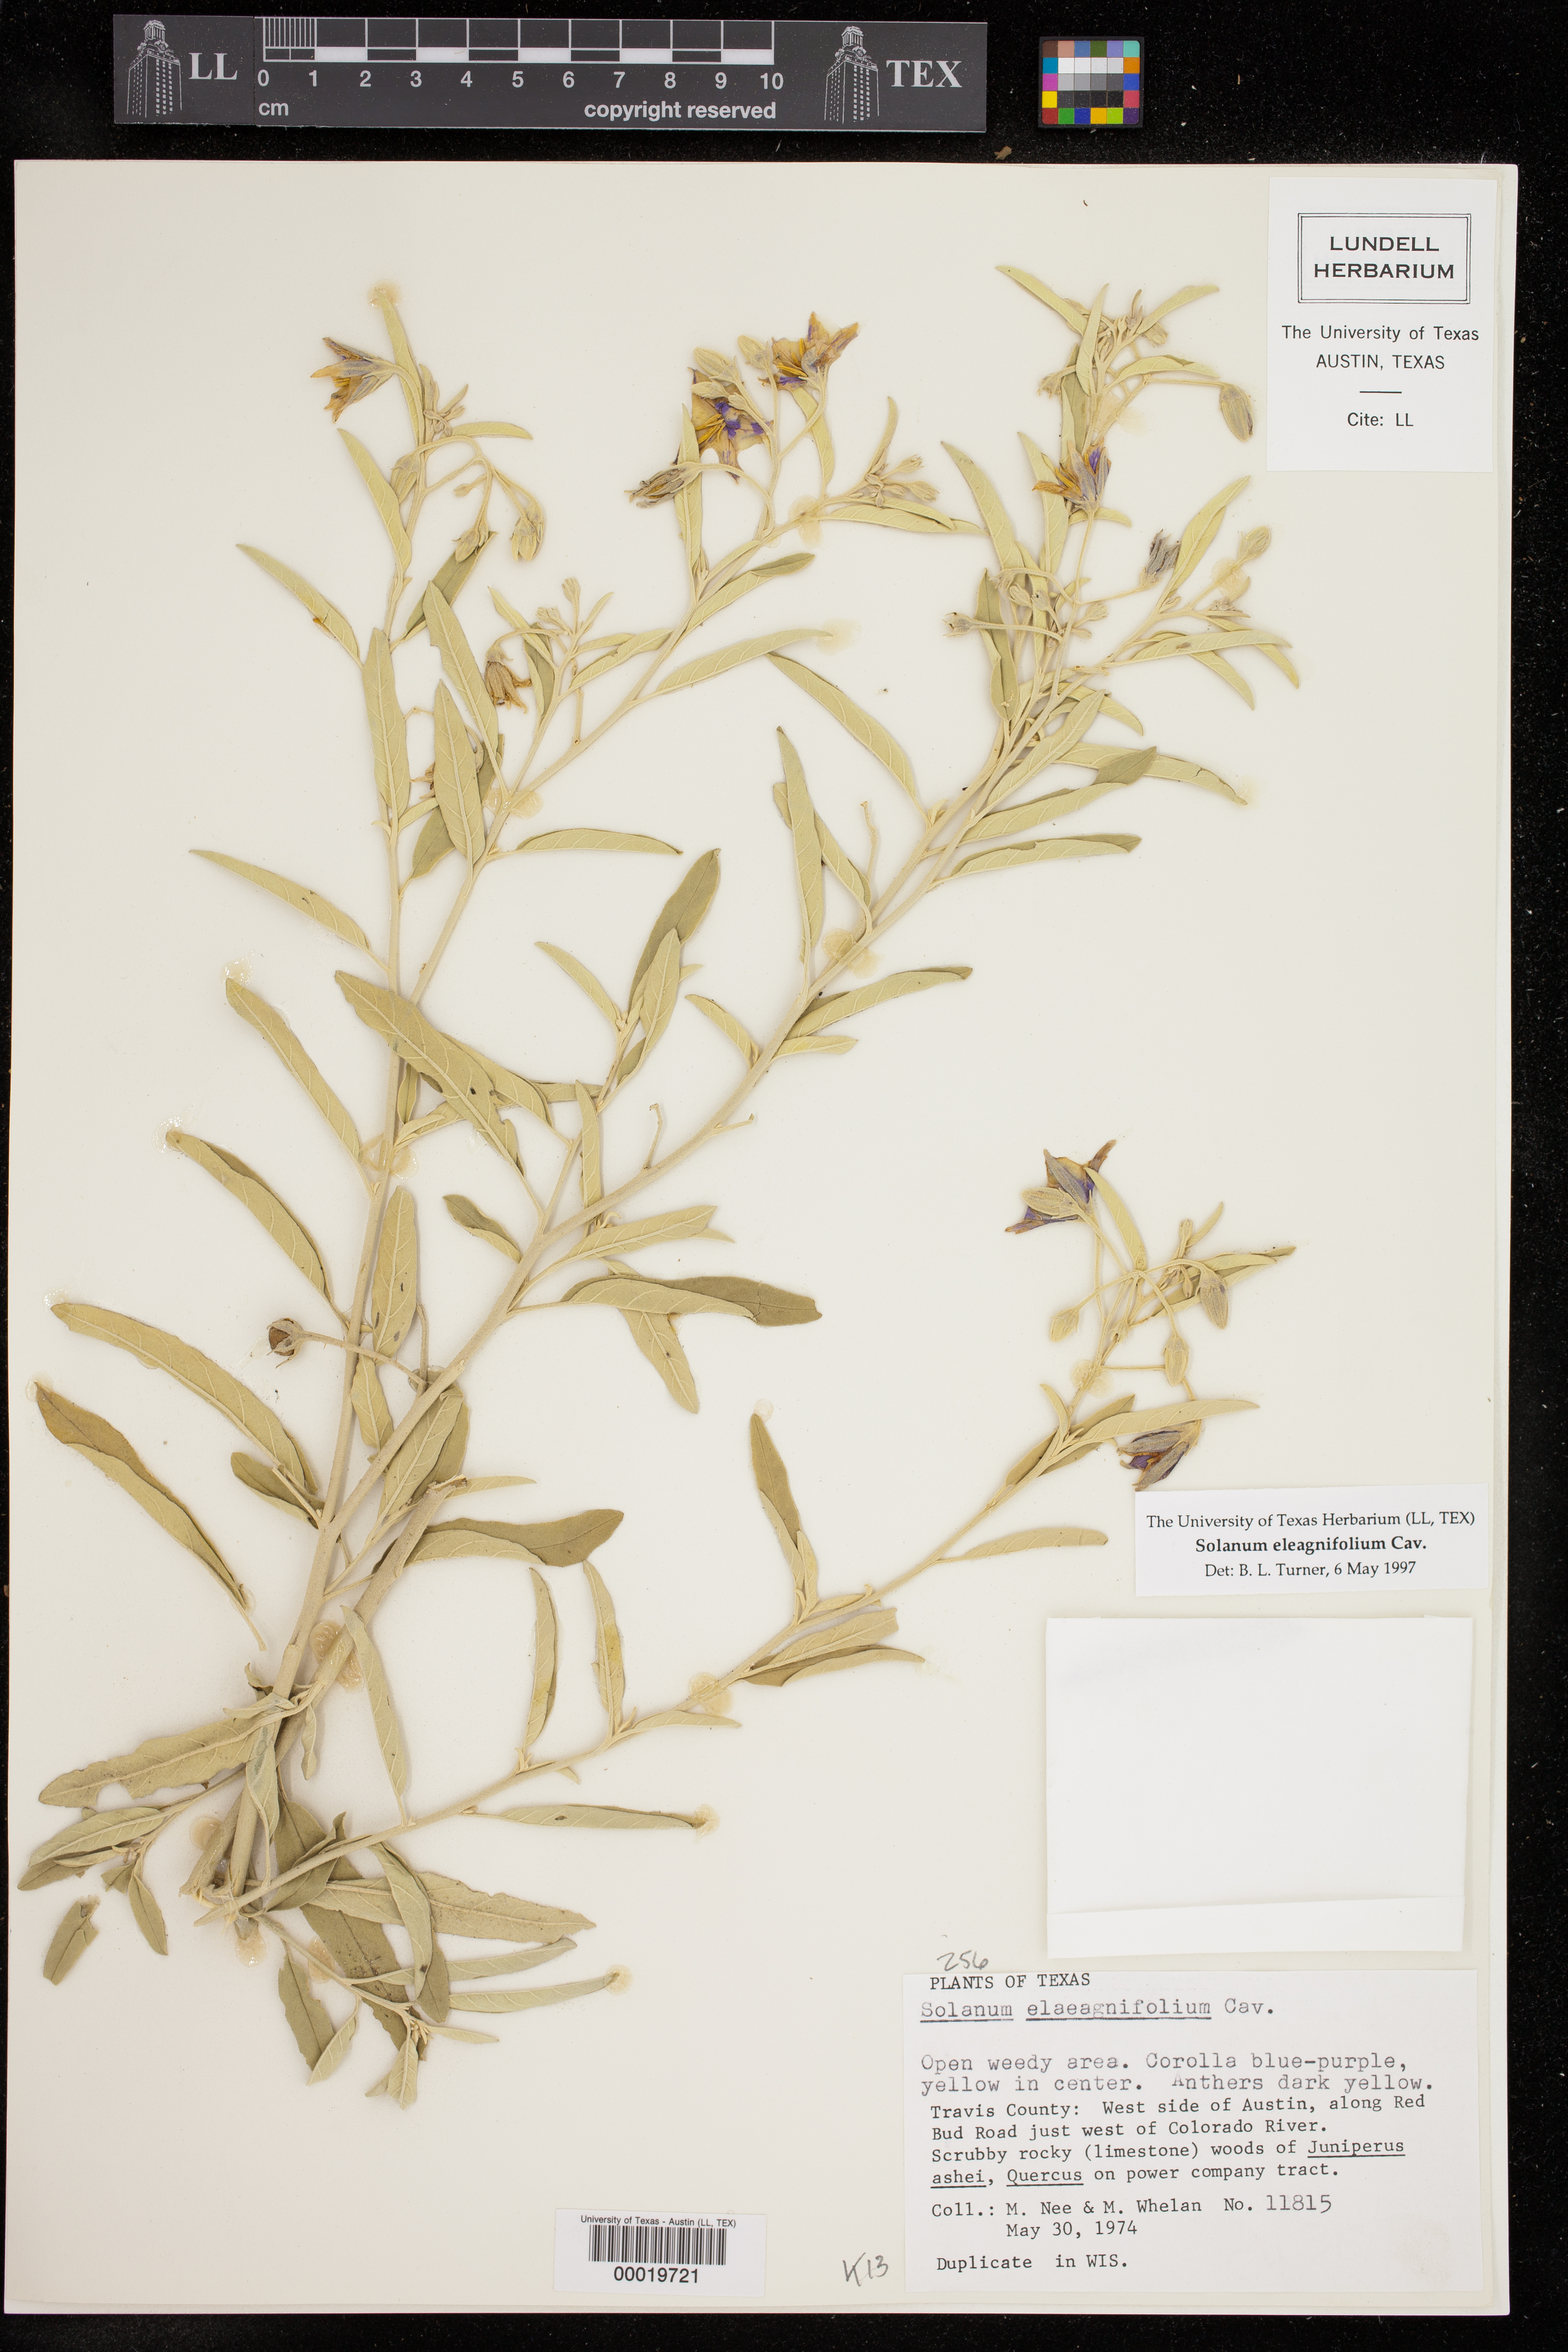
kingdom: Plantae
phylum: Tracheophyta
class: Magnoliopsida
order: Solanales
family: Solanaceae
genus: Solanum
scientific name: Solanum elaeagnifolium
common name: Silverleaf nightshade
